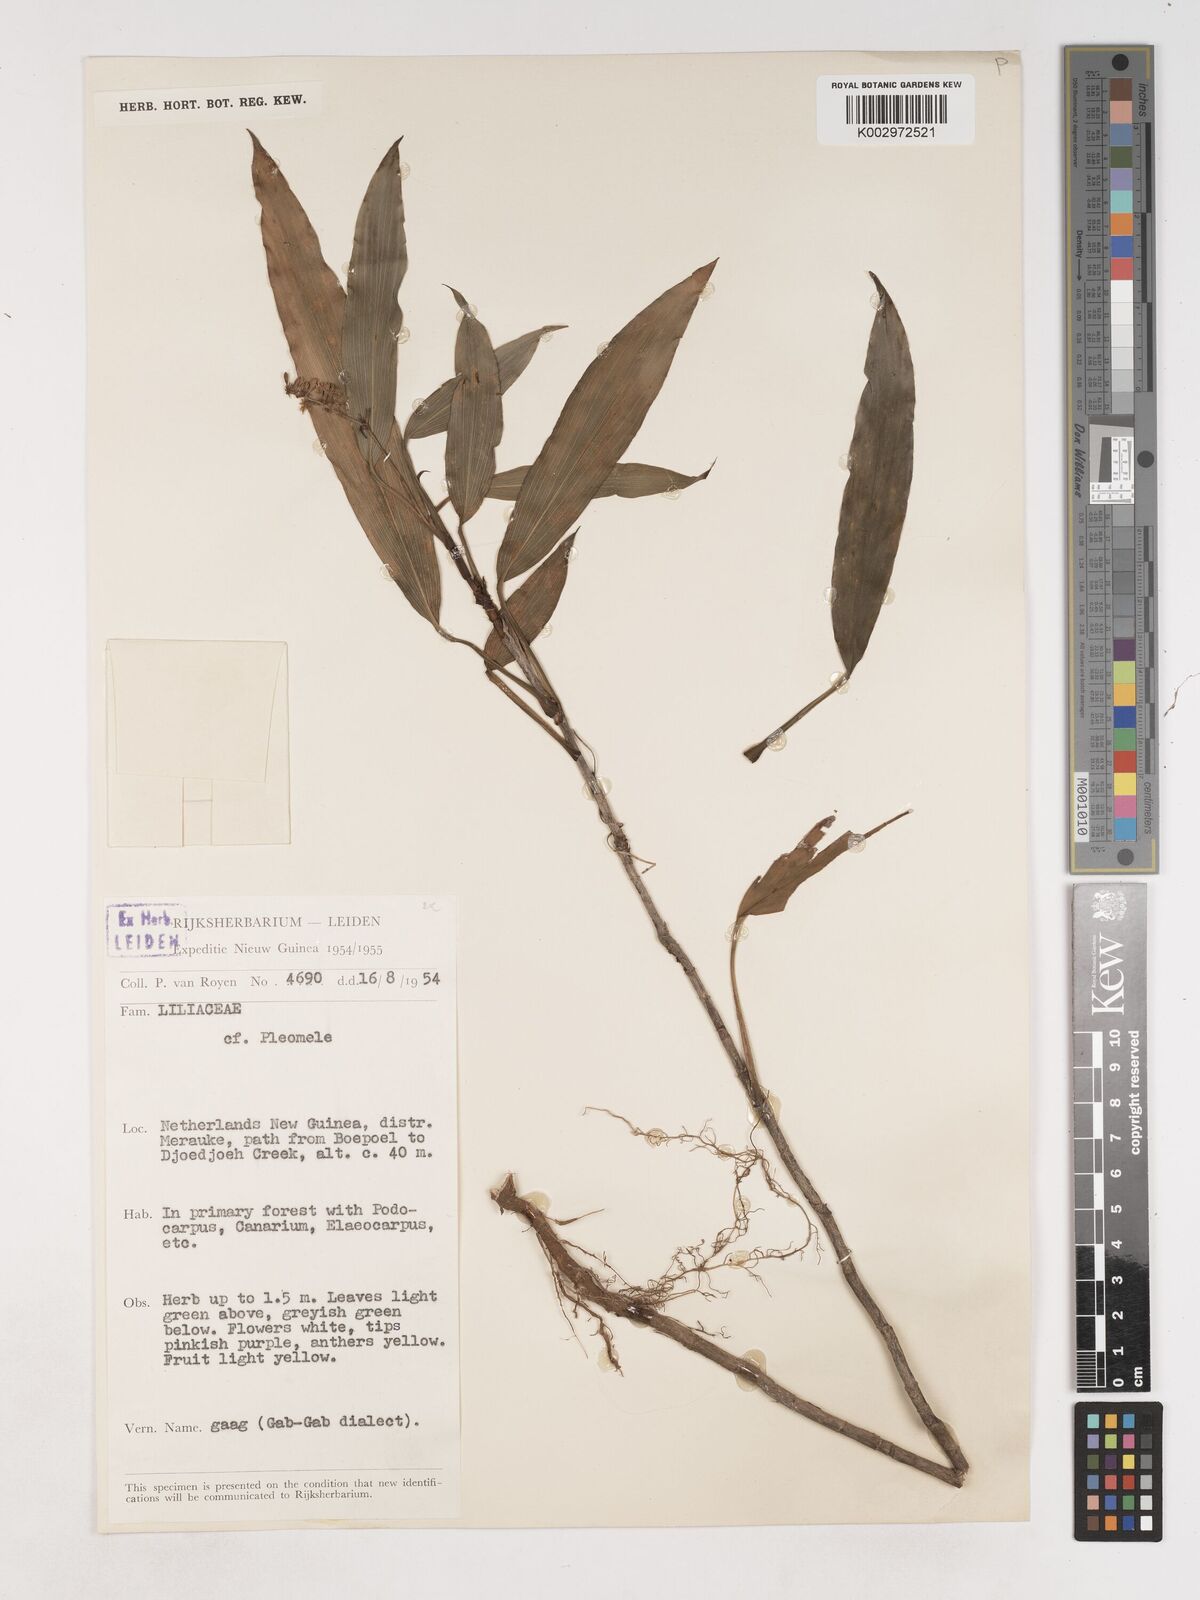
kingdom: Plantae
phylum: Tracheophyta
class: Liliopsida
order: Asparagales
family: Asparagaceae
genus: Cordyline
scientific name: Cordyline
